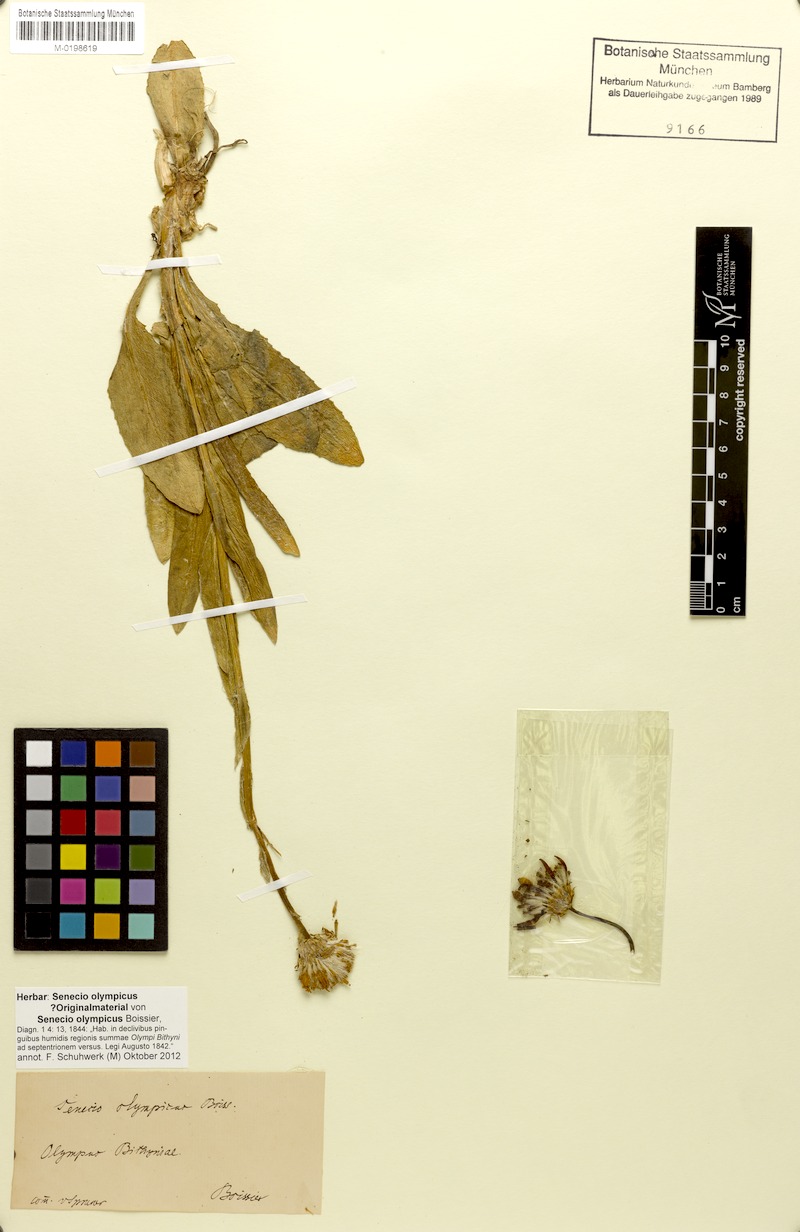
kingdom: Plantae
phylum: Tracheophyta
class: Magnoliopsida
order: Asterales
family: Asteraceae
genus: Senecio
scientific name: Senecio olympicus
